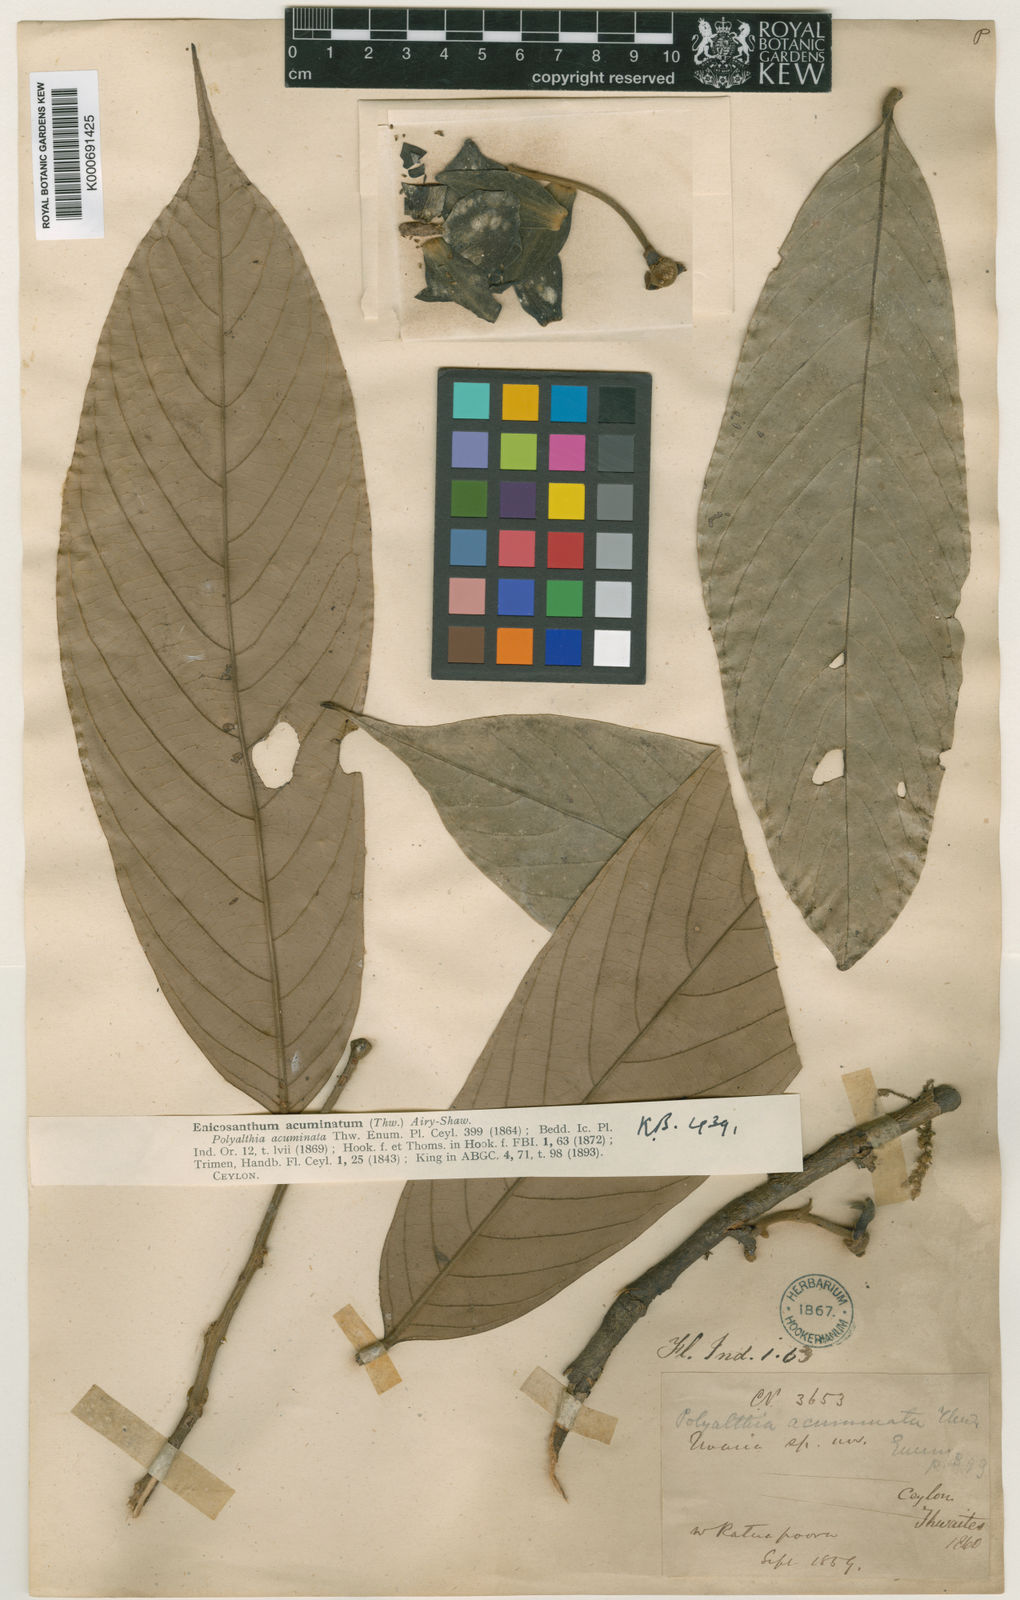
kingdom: Plantae
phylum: Tracheophyta
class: Magnoliopsida
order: Magnoliales
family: Annonaceae
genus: Enicosanthum
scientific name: Enicosanthum acuminatum
